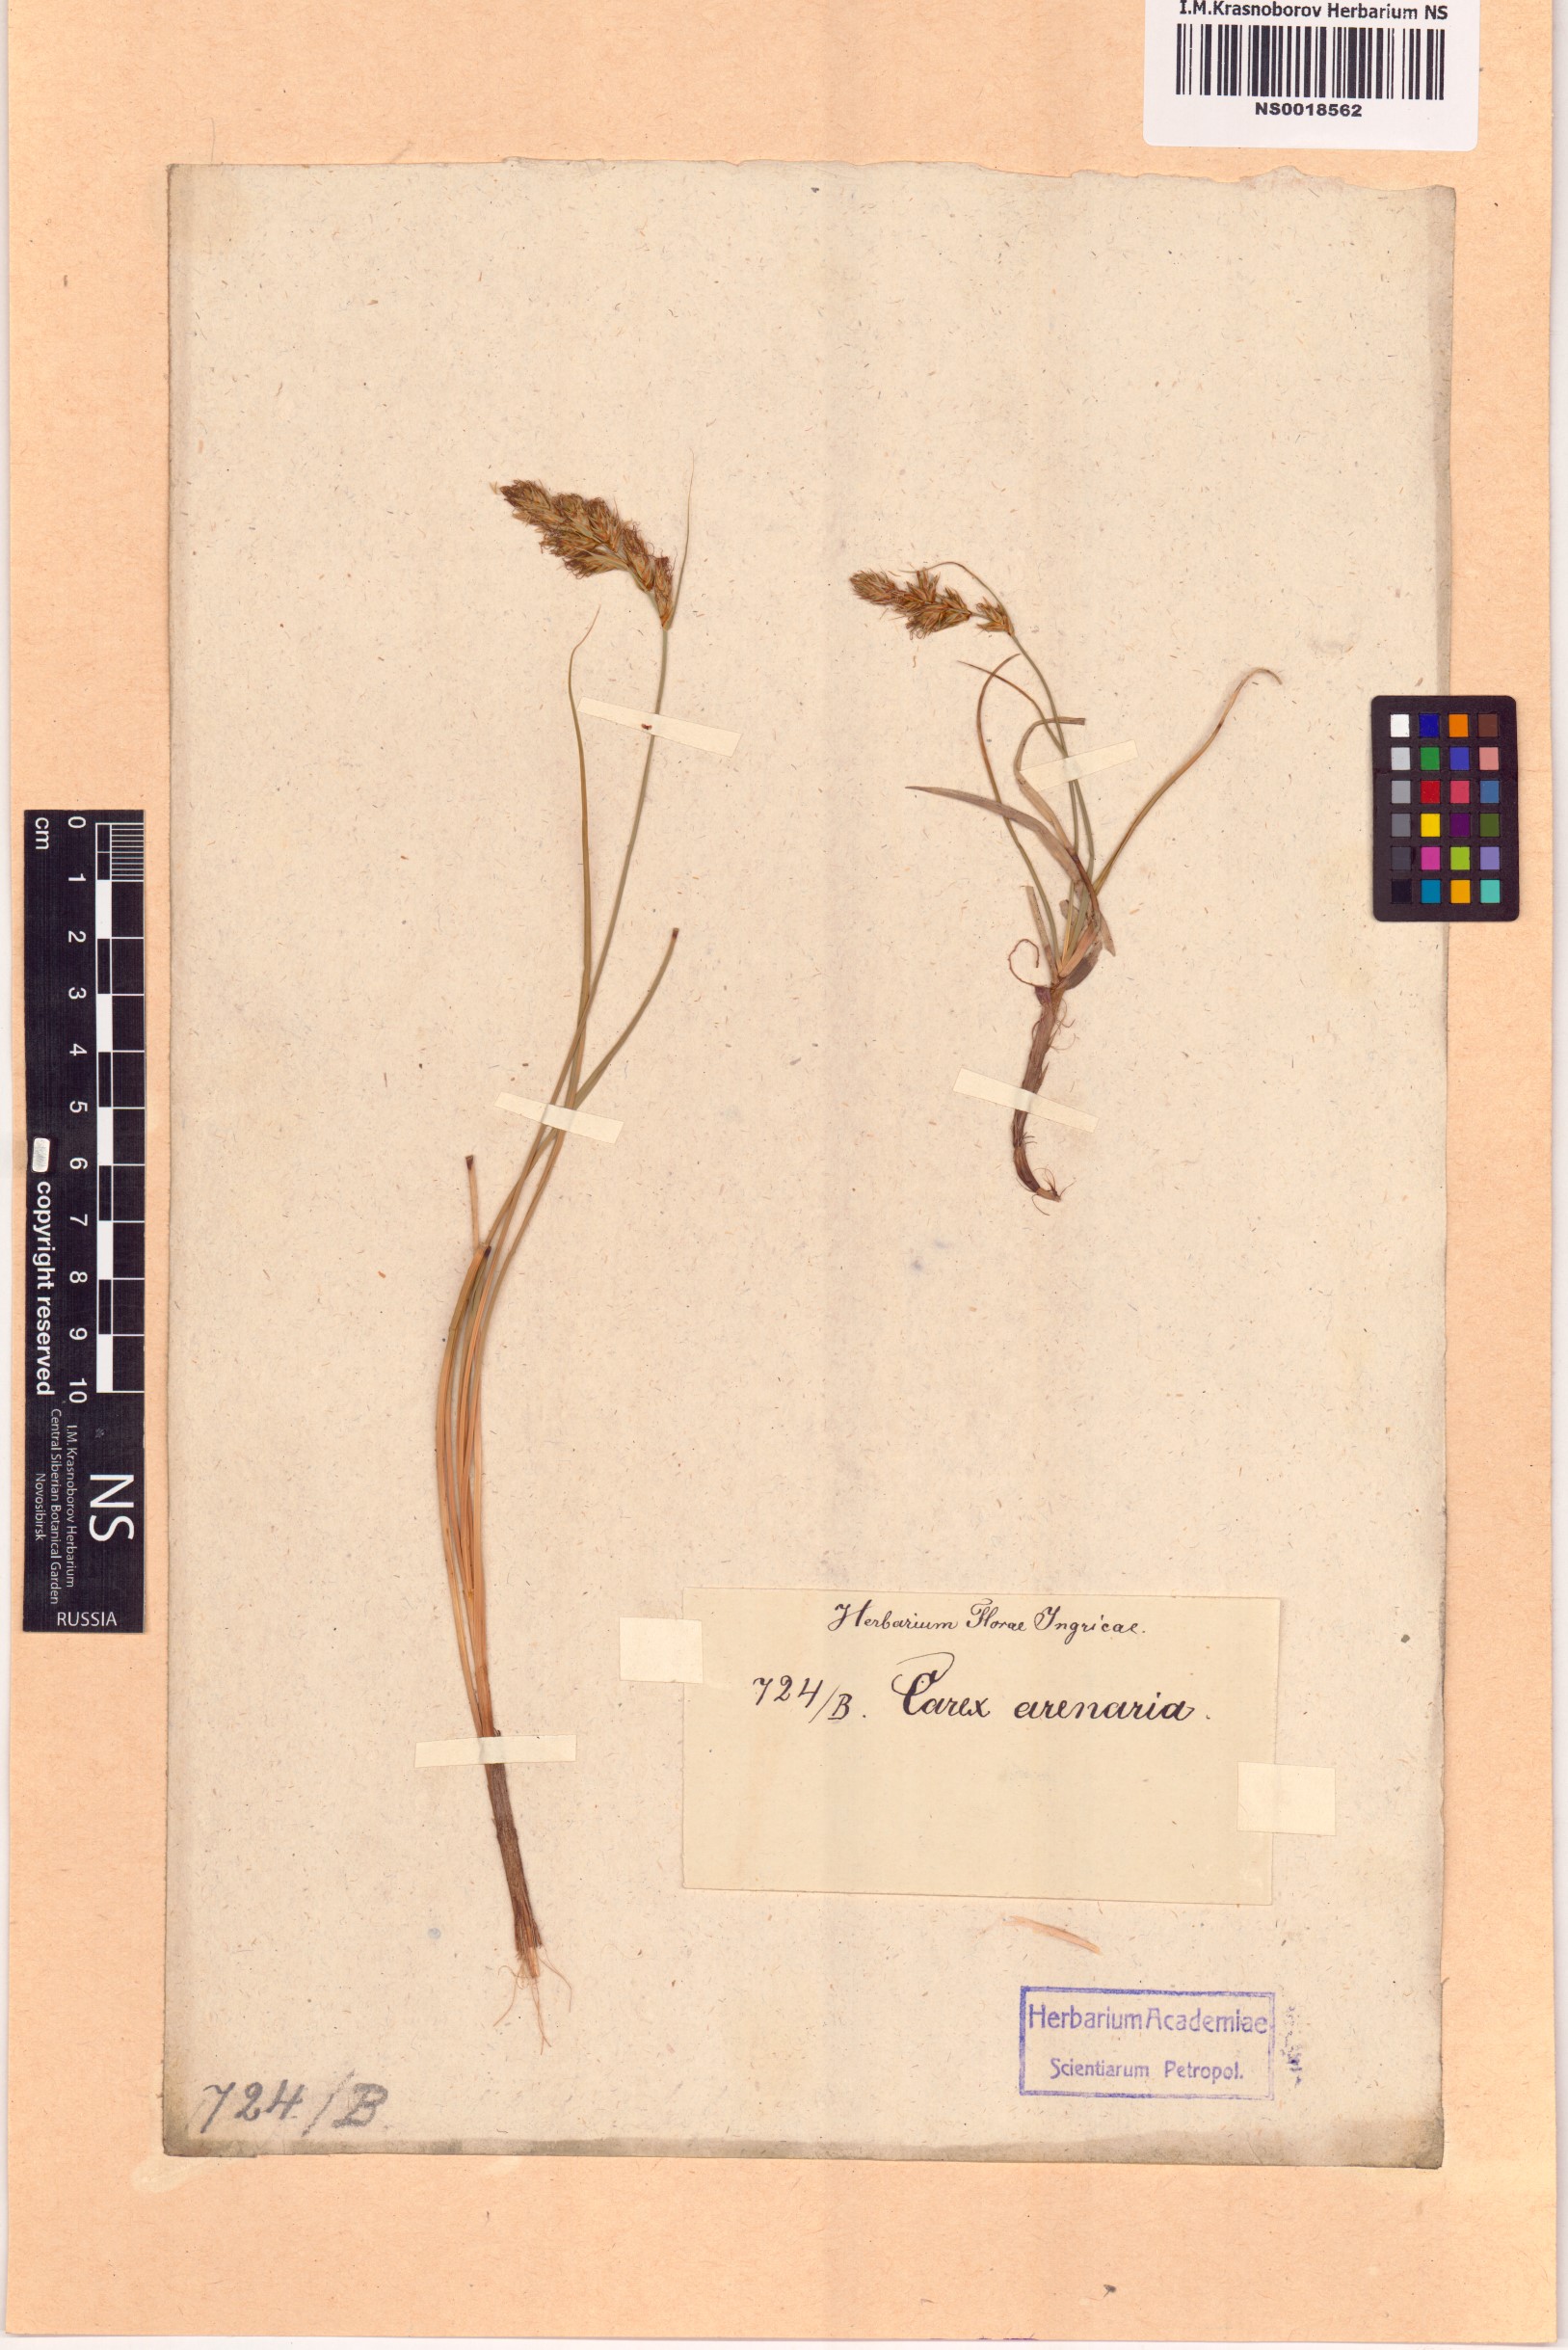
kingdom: Plantae
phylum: Tracheophyta
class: Liliopsida
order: Poales
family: Cyperaceae
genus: Carex
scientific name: Carex arenaria
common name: Sand sedge
